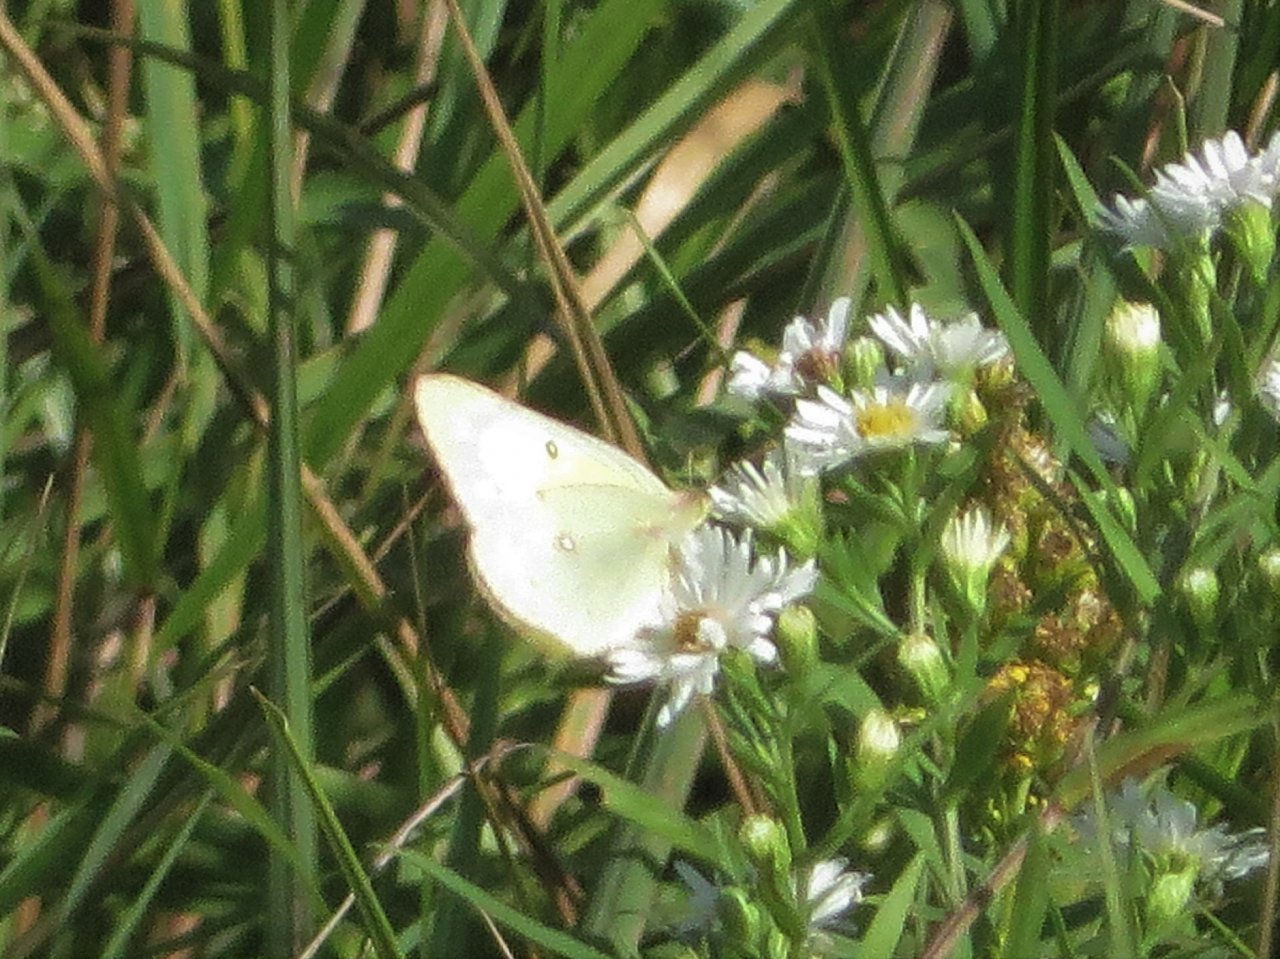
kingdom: Animalia
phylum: Arthropoda
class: Insecta
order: Lepidoptera
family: Pieridae
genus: Colias
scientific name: Colias philodice
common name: Clouded Sulphur
